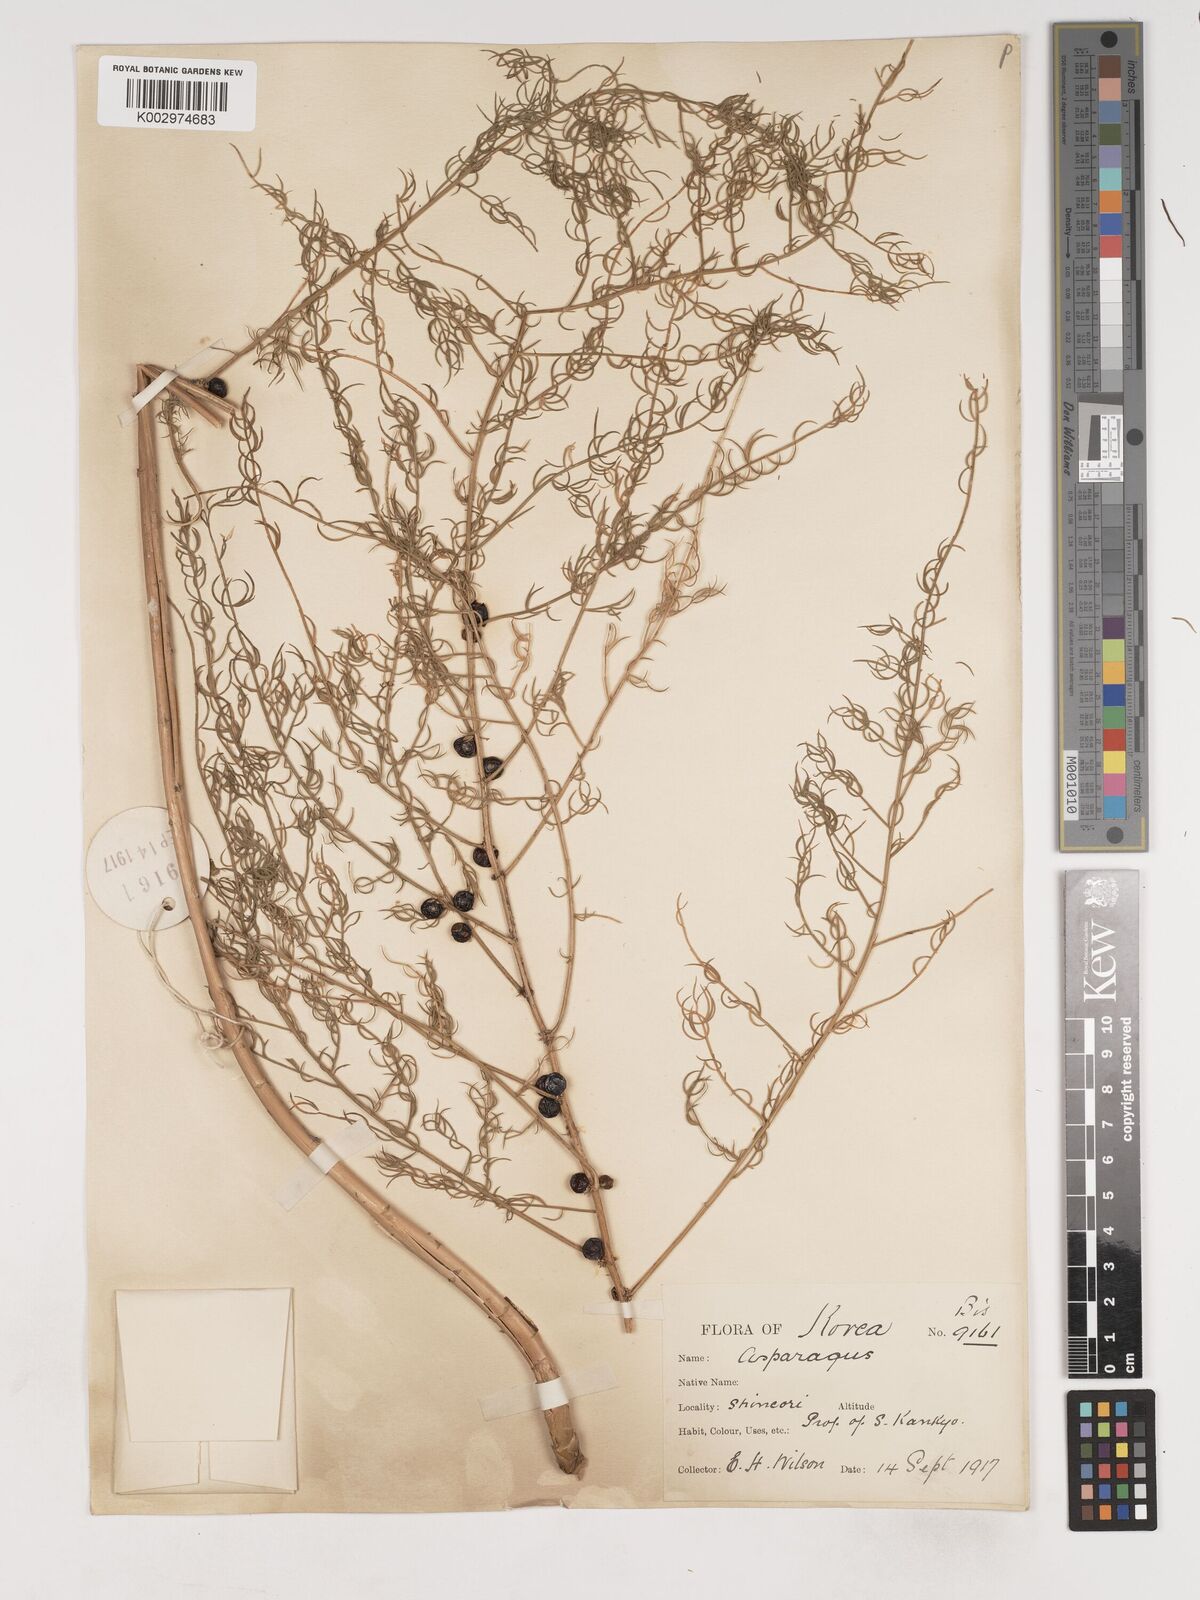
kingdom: Plantae
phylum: Tracheophyta
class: Liliopsida
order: Asparagales
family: Asparagaceae
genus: Asparagus
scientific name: Asparagus schoberioides
